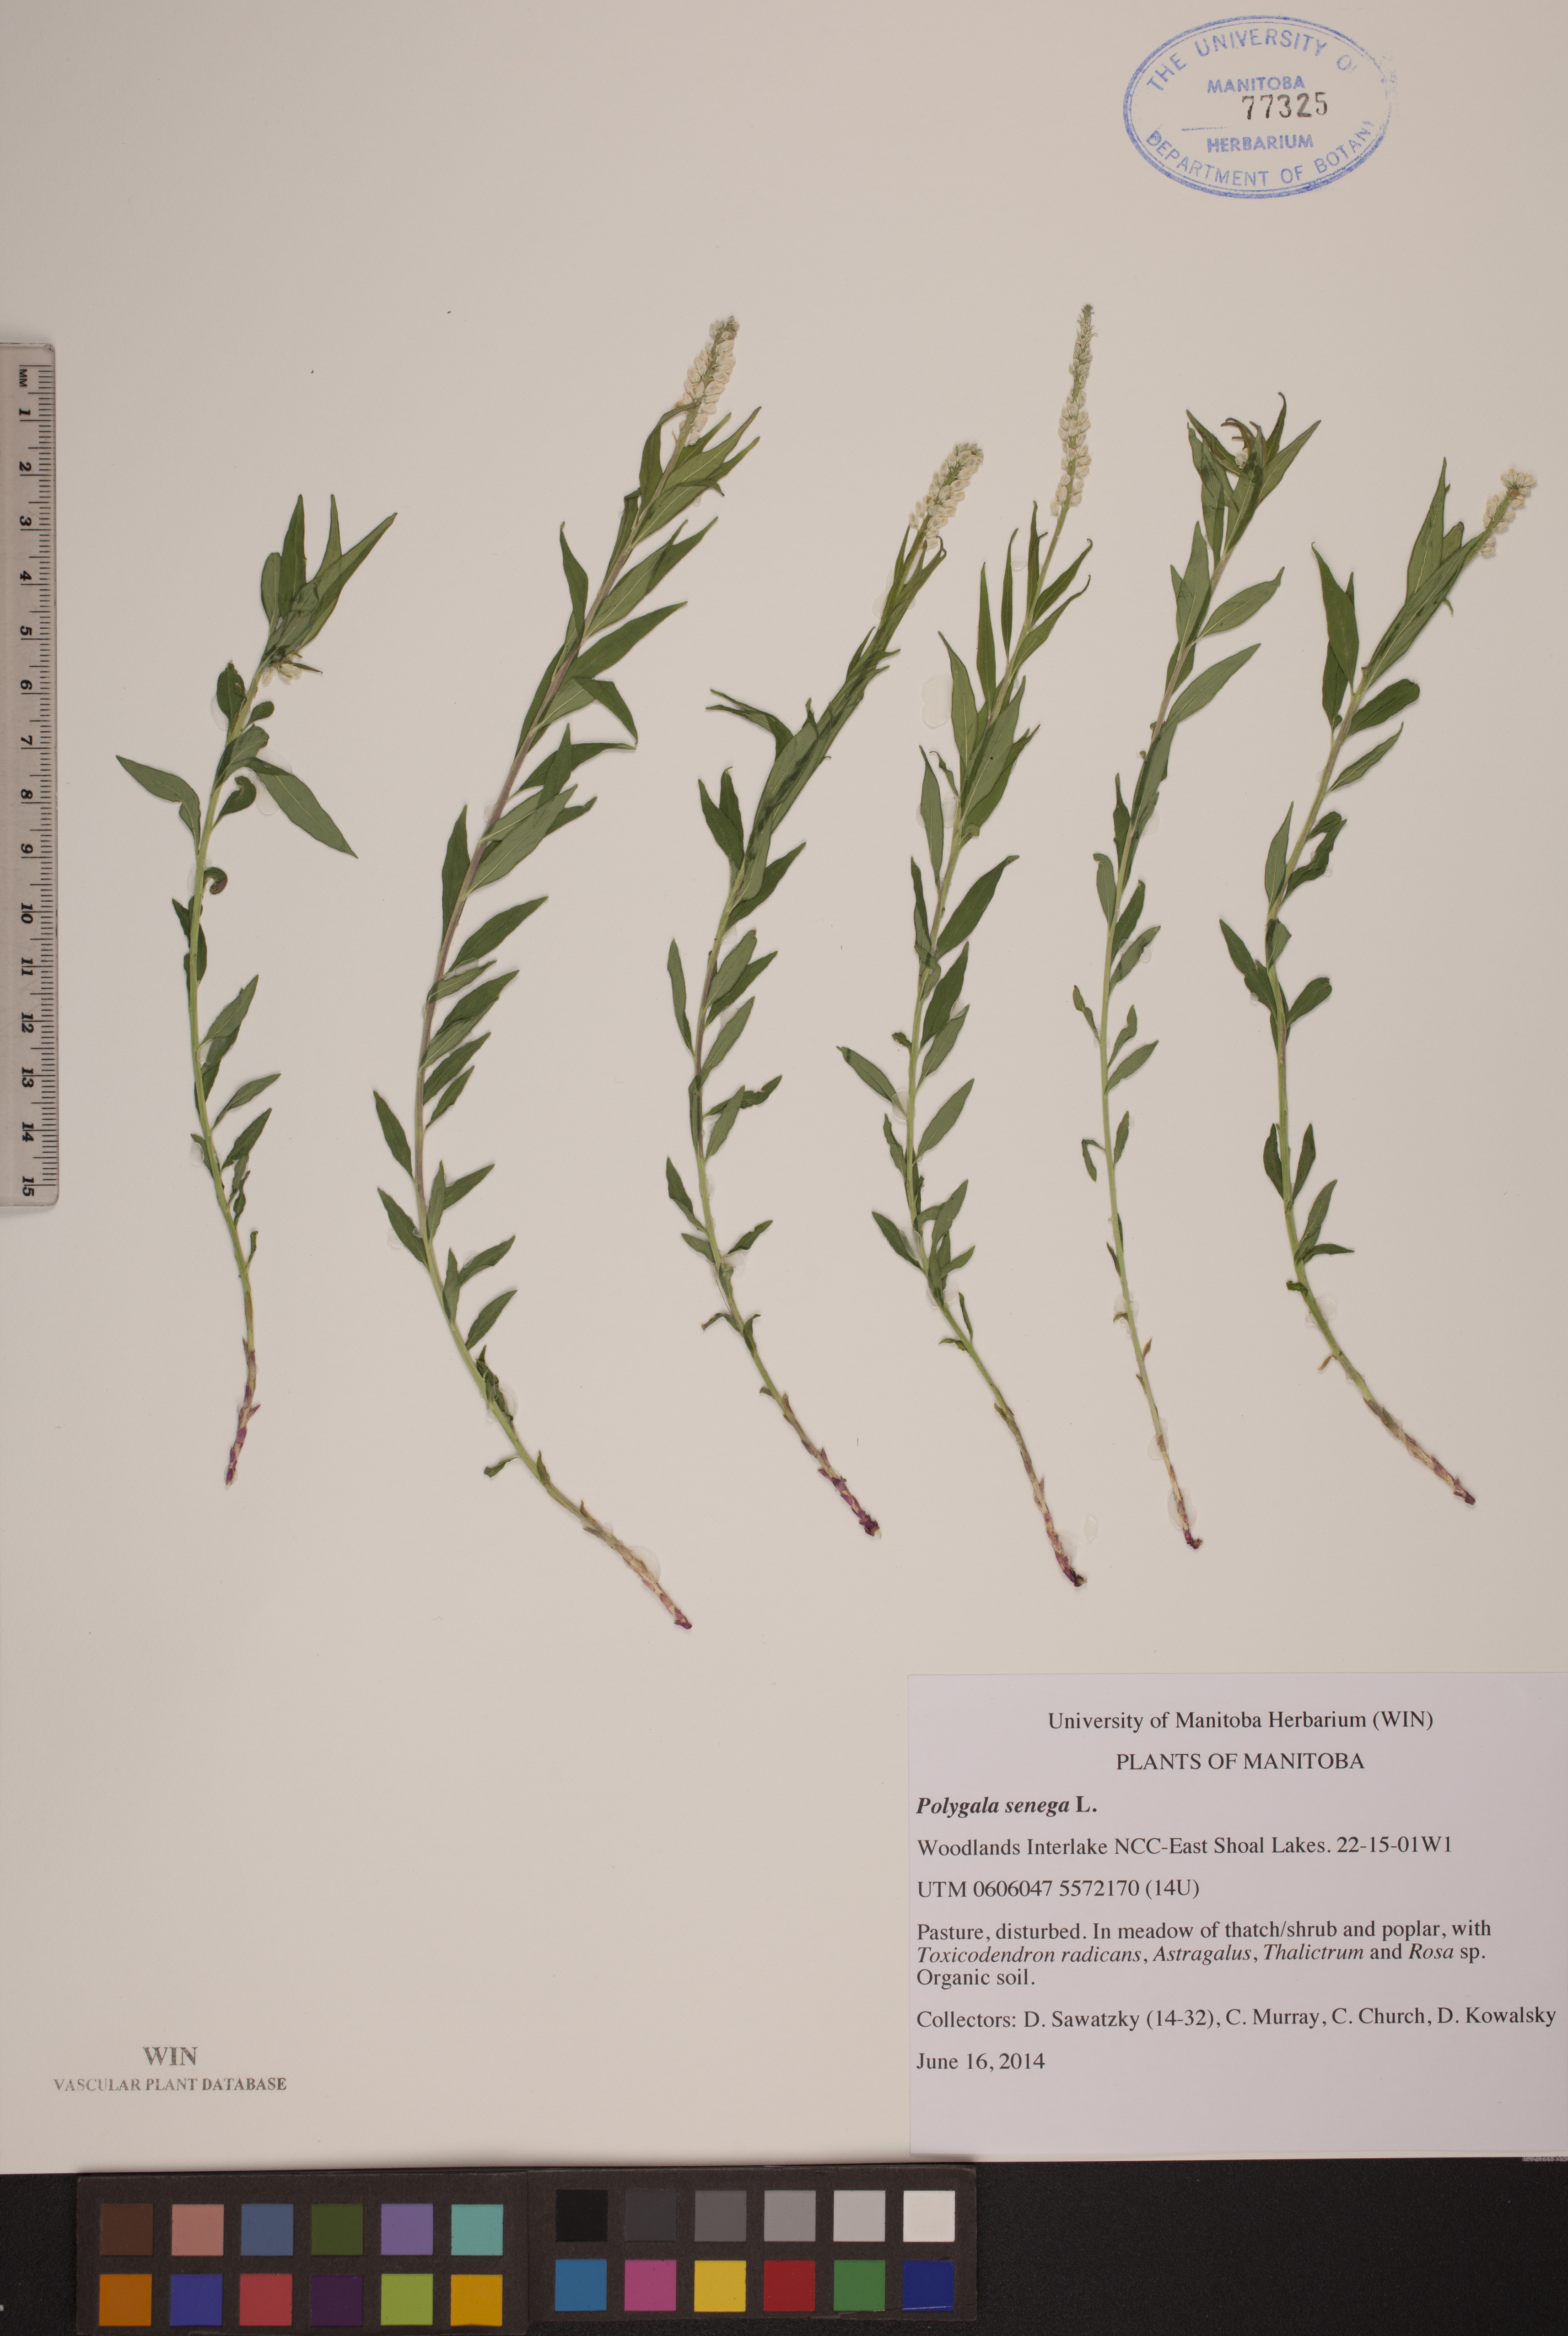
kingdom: Plantae
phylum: Tracheophyta
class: Magnoliopsida
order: Fabales
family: Polygalaceae
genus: Polygala
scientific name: Polygala senega
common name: Seneca snakeroot
